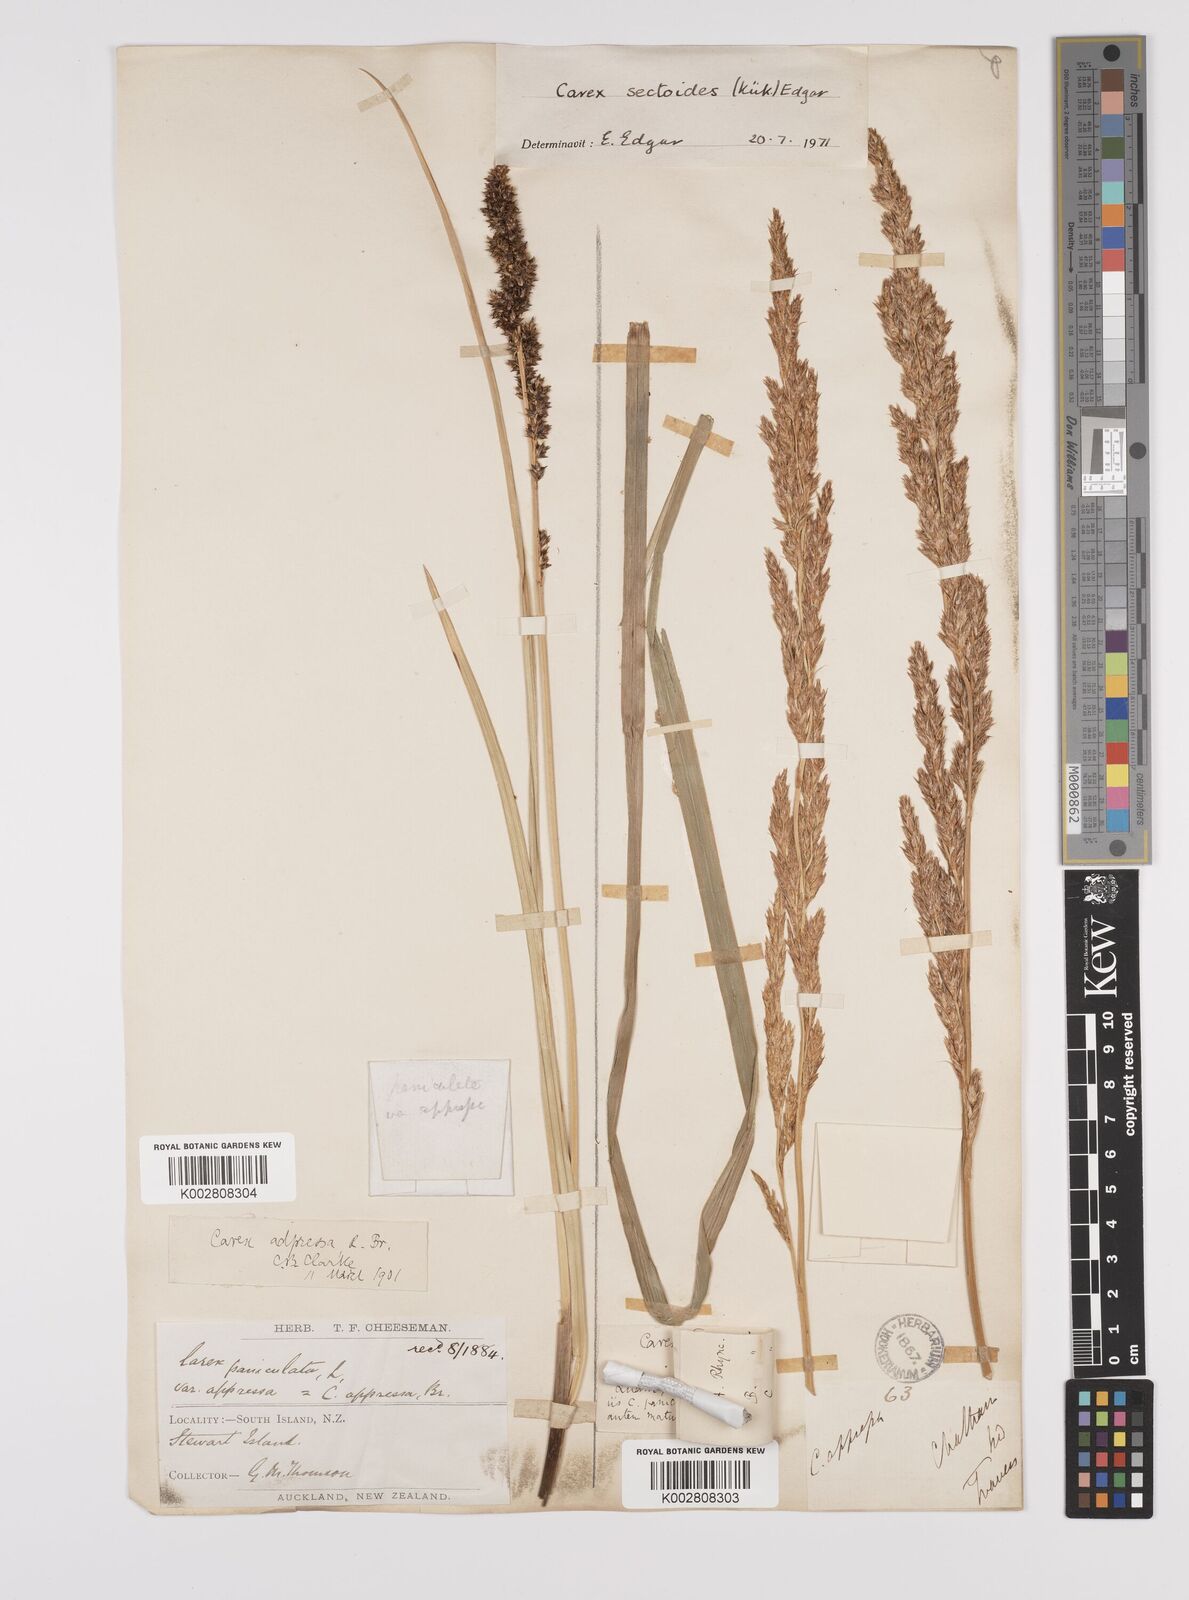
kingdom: Plantae
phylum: Tracheophyta
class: Liliopsida
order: Poales
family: Cyperaceae
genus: Carex
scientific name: Carex appressa
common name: Tussock sedge
